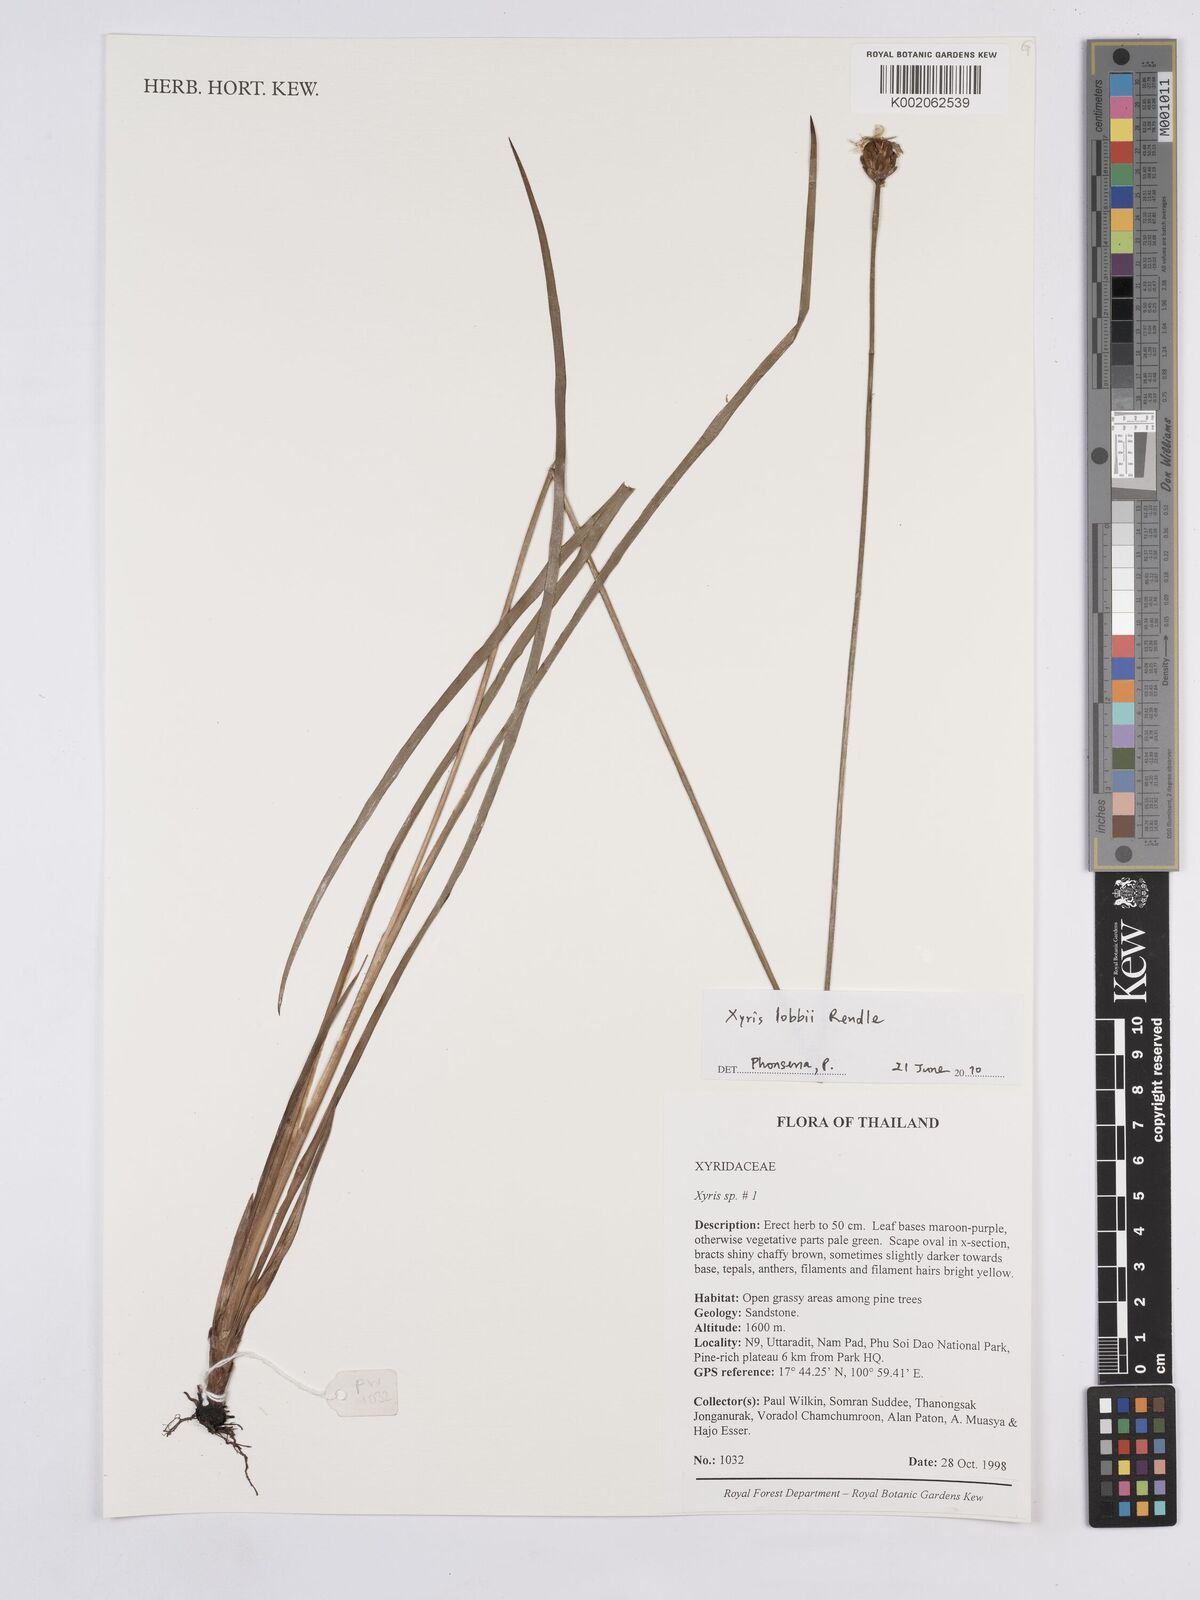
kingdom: Plantae
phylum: Tracheophyta
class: Liliopsida
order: Poales
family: Xyridaceae
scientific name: Xyridaceae
